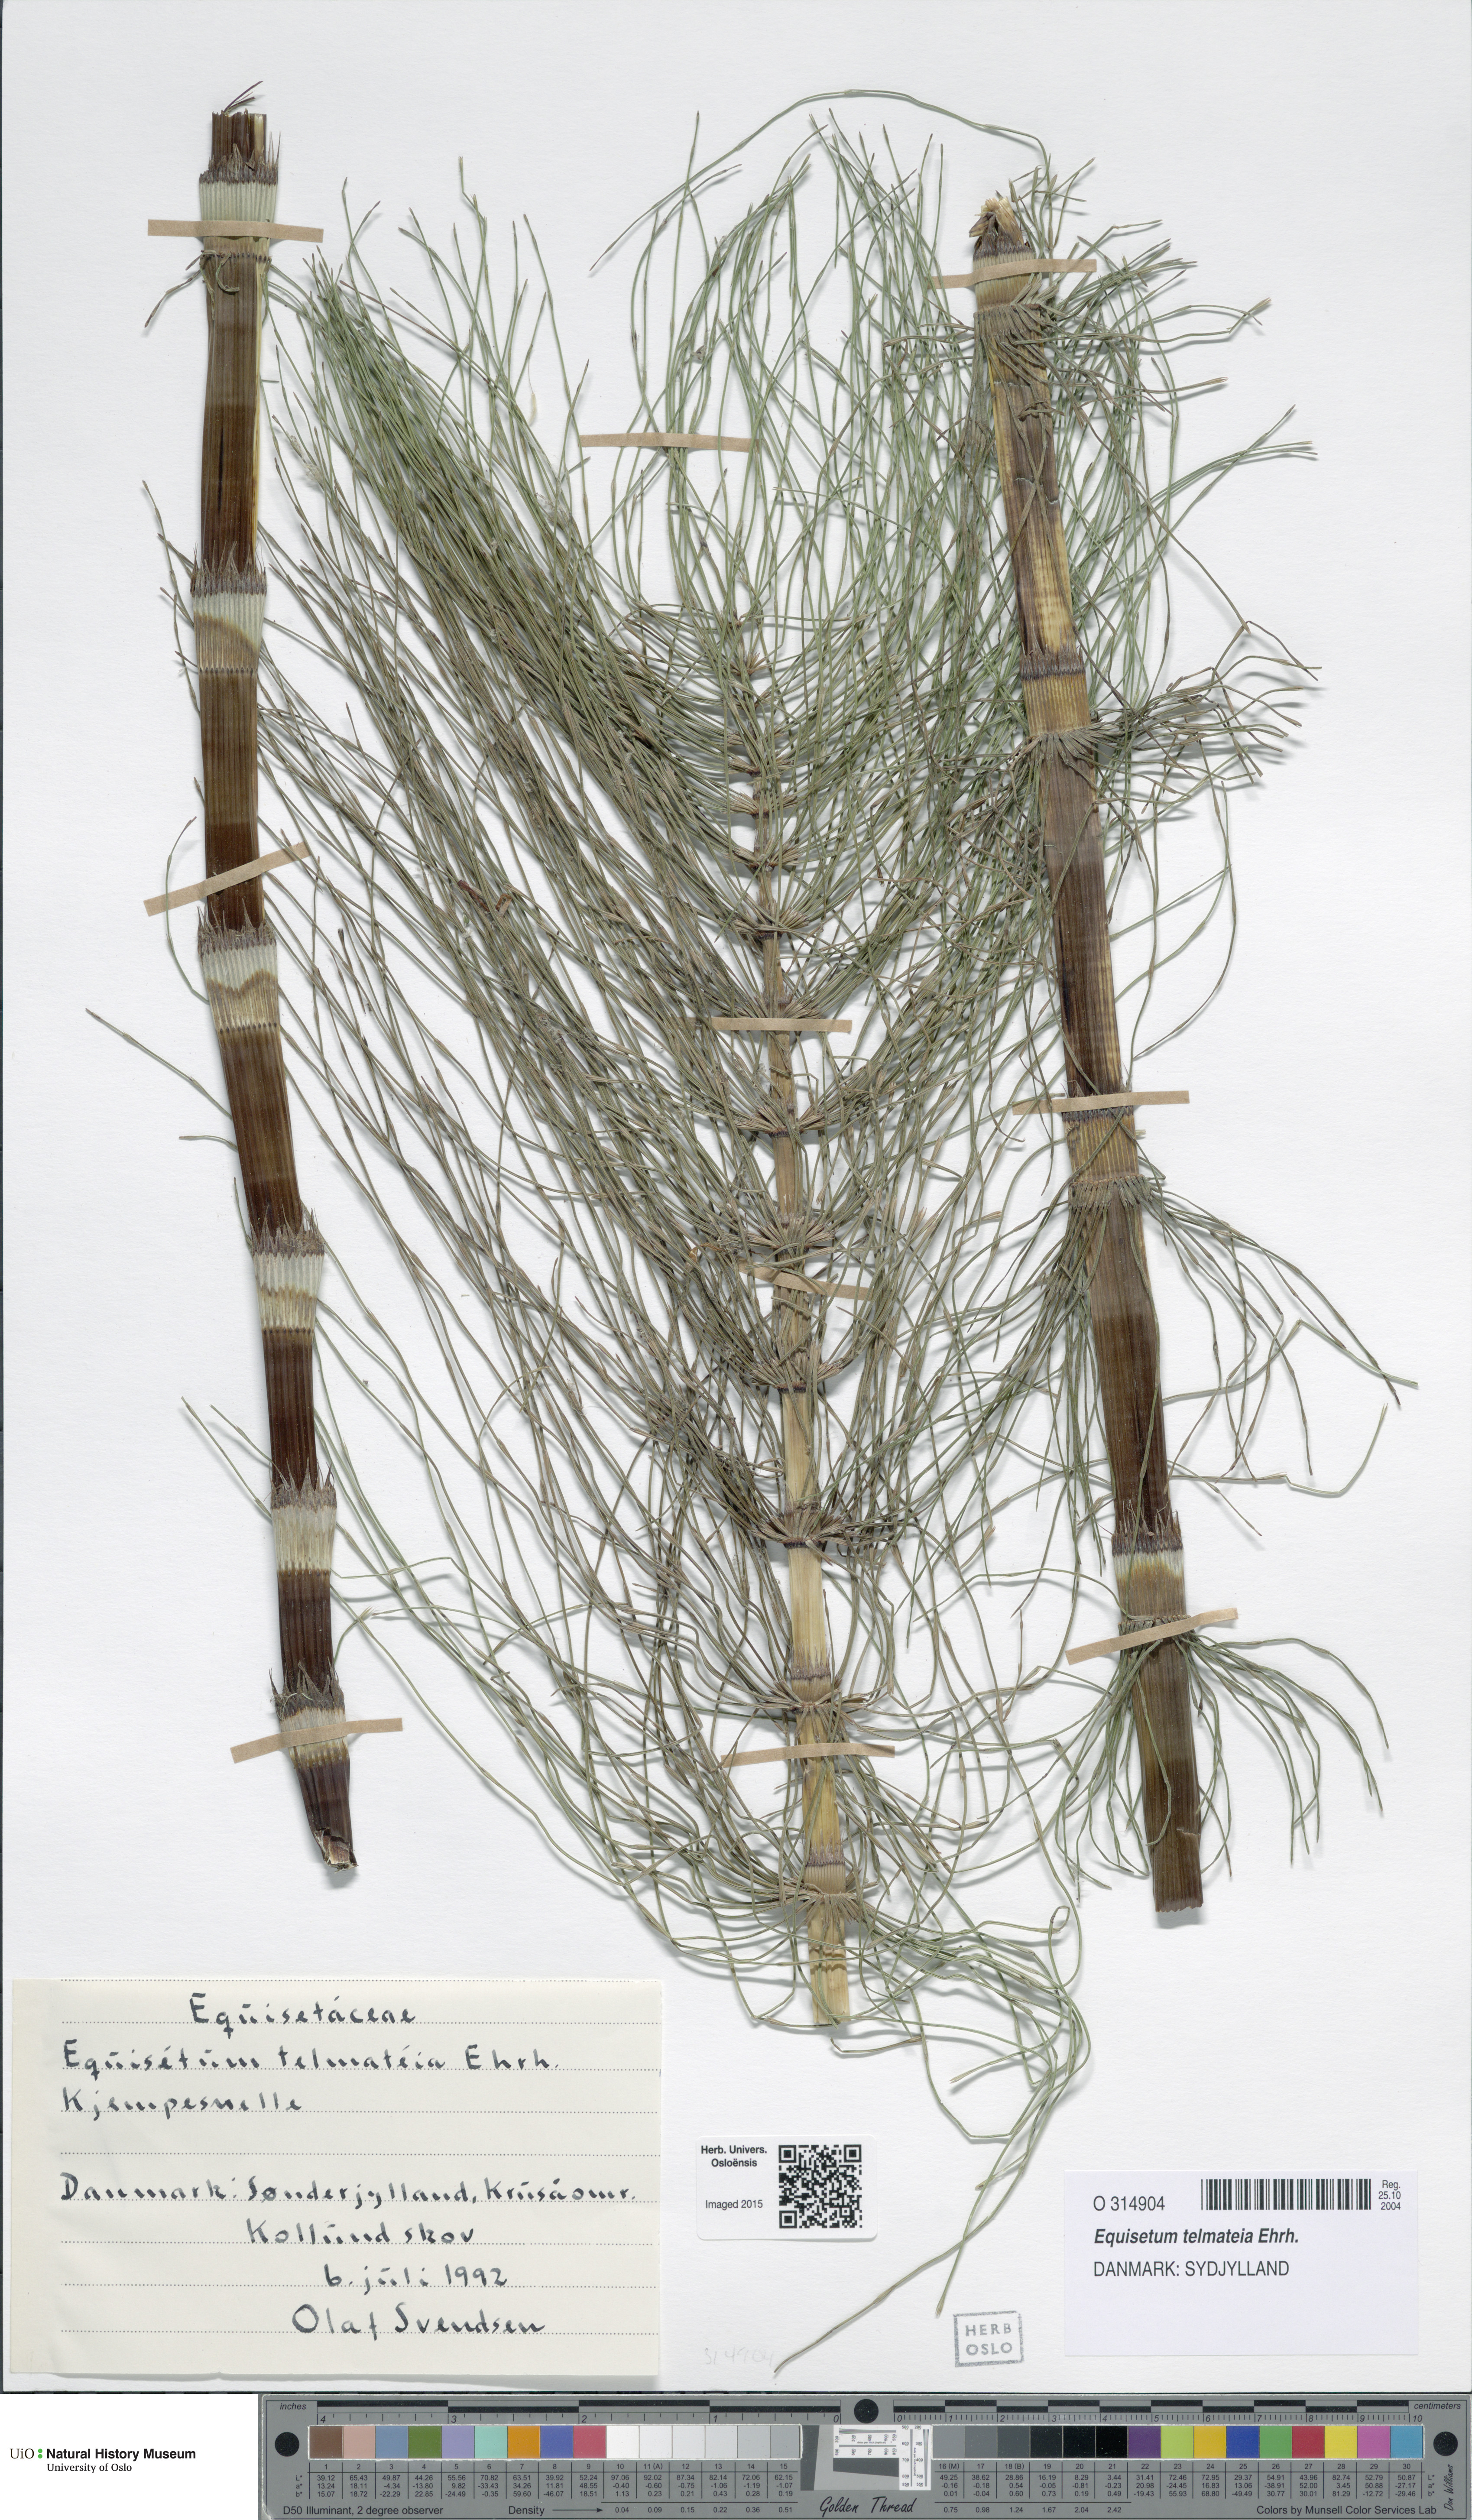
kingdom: Plantae
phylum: Tracheophyta
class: Polypodiopsida
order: Equisetales
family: Equisetaceae
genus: Equisetum
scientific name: Equisetum telmateia
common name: Great horsetail
